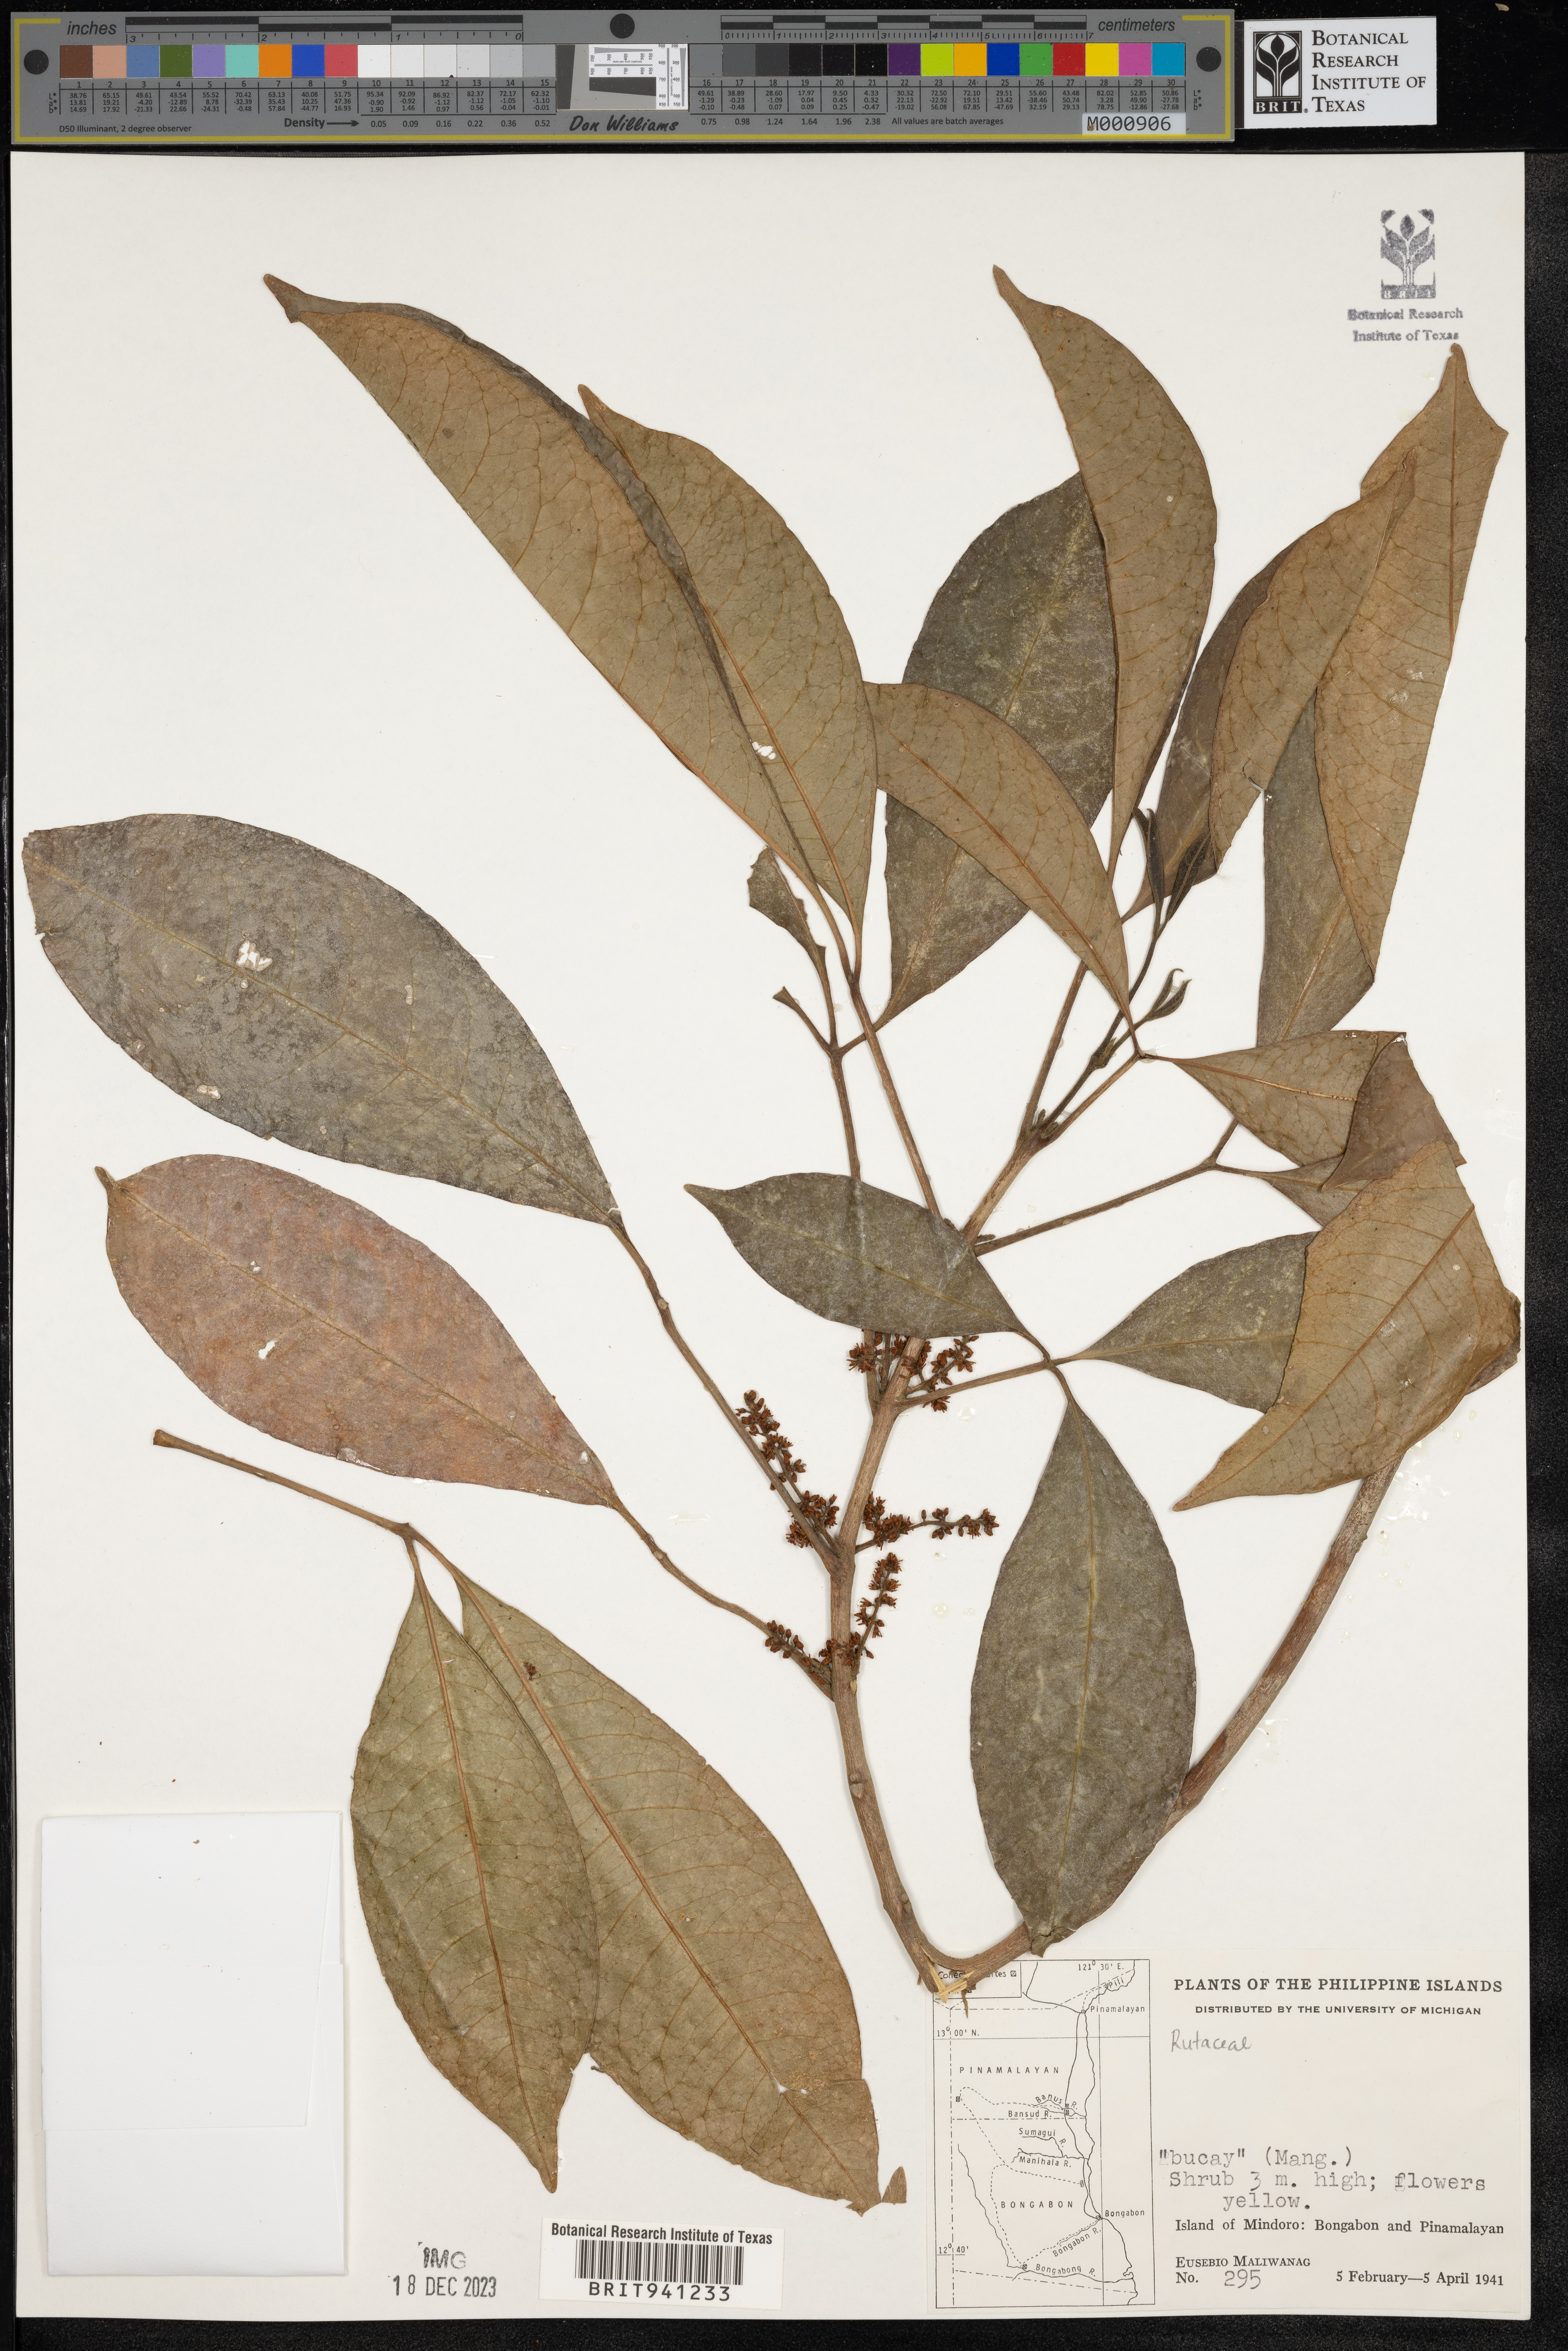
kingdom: Plantae
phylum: Tracheophyta
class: Magnoliopsida
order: Sapindales
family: Rutaceae
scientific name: Rutaceae
